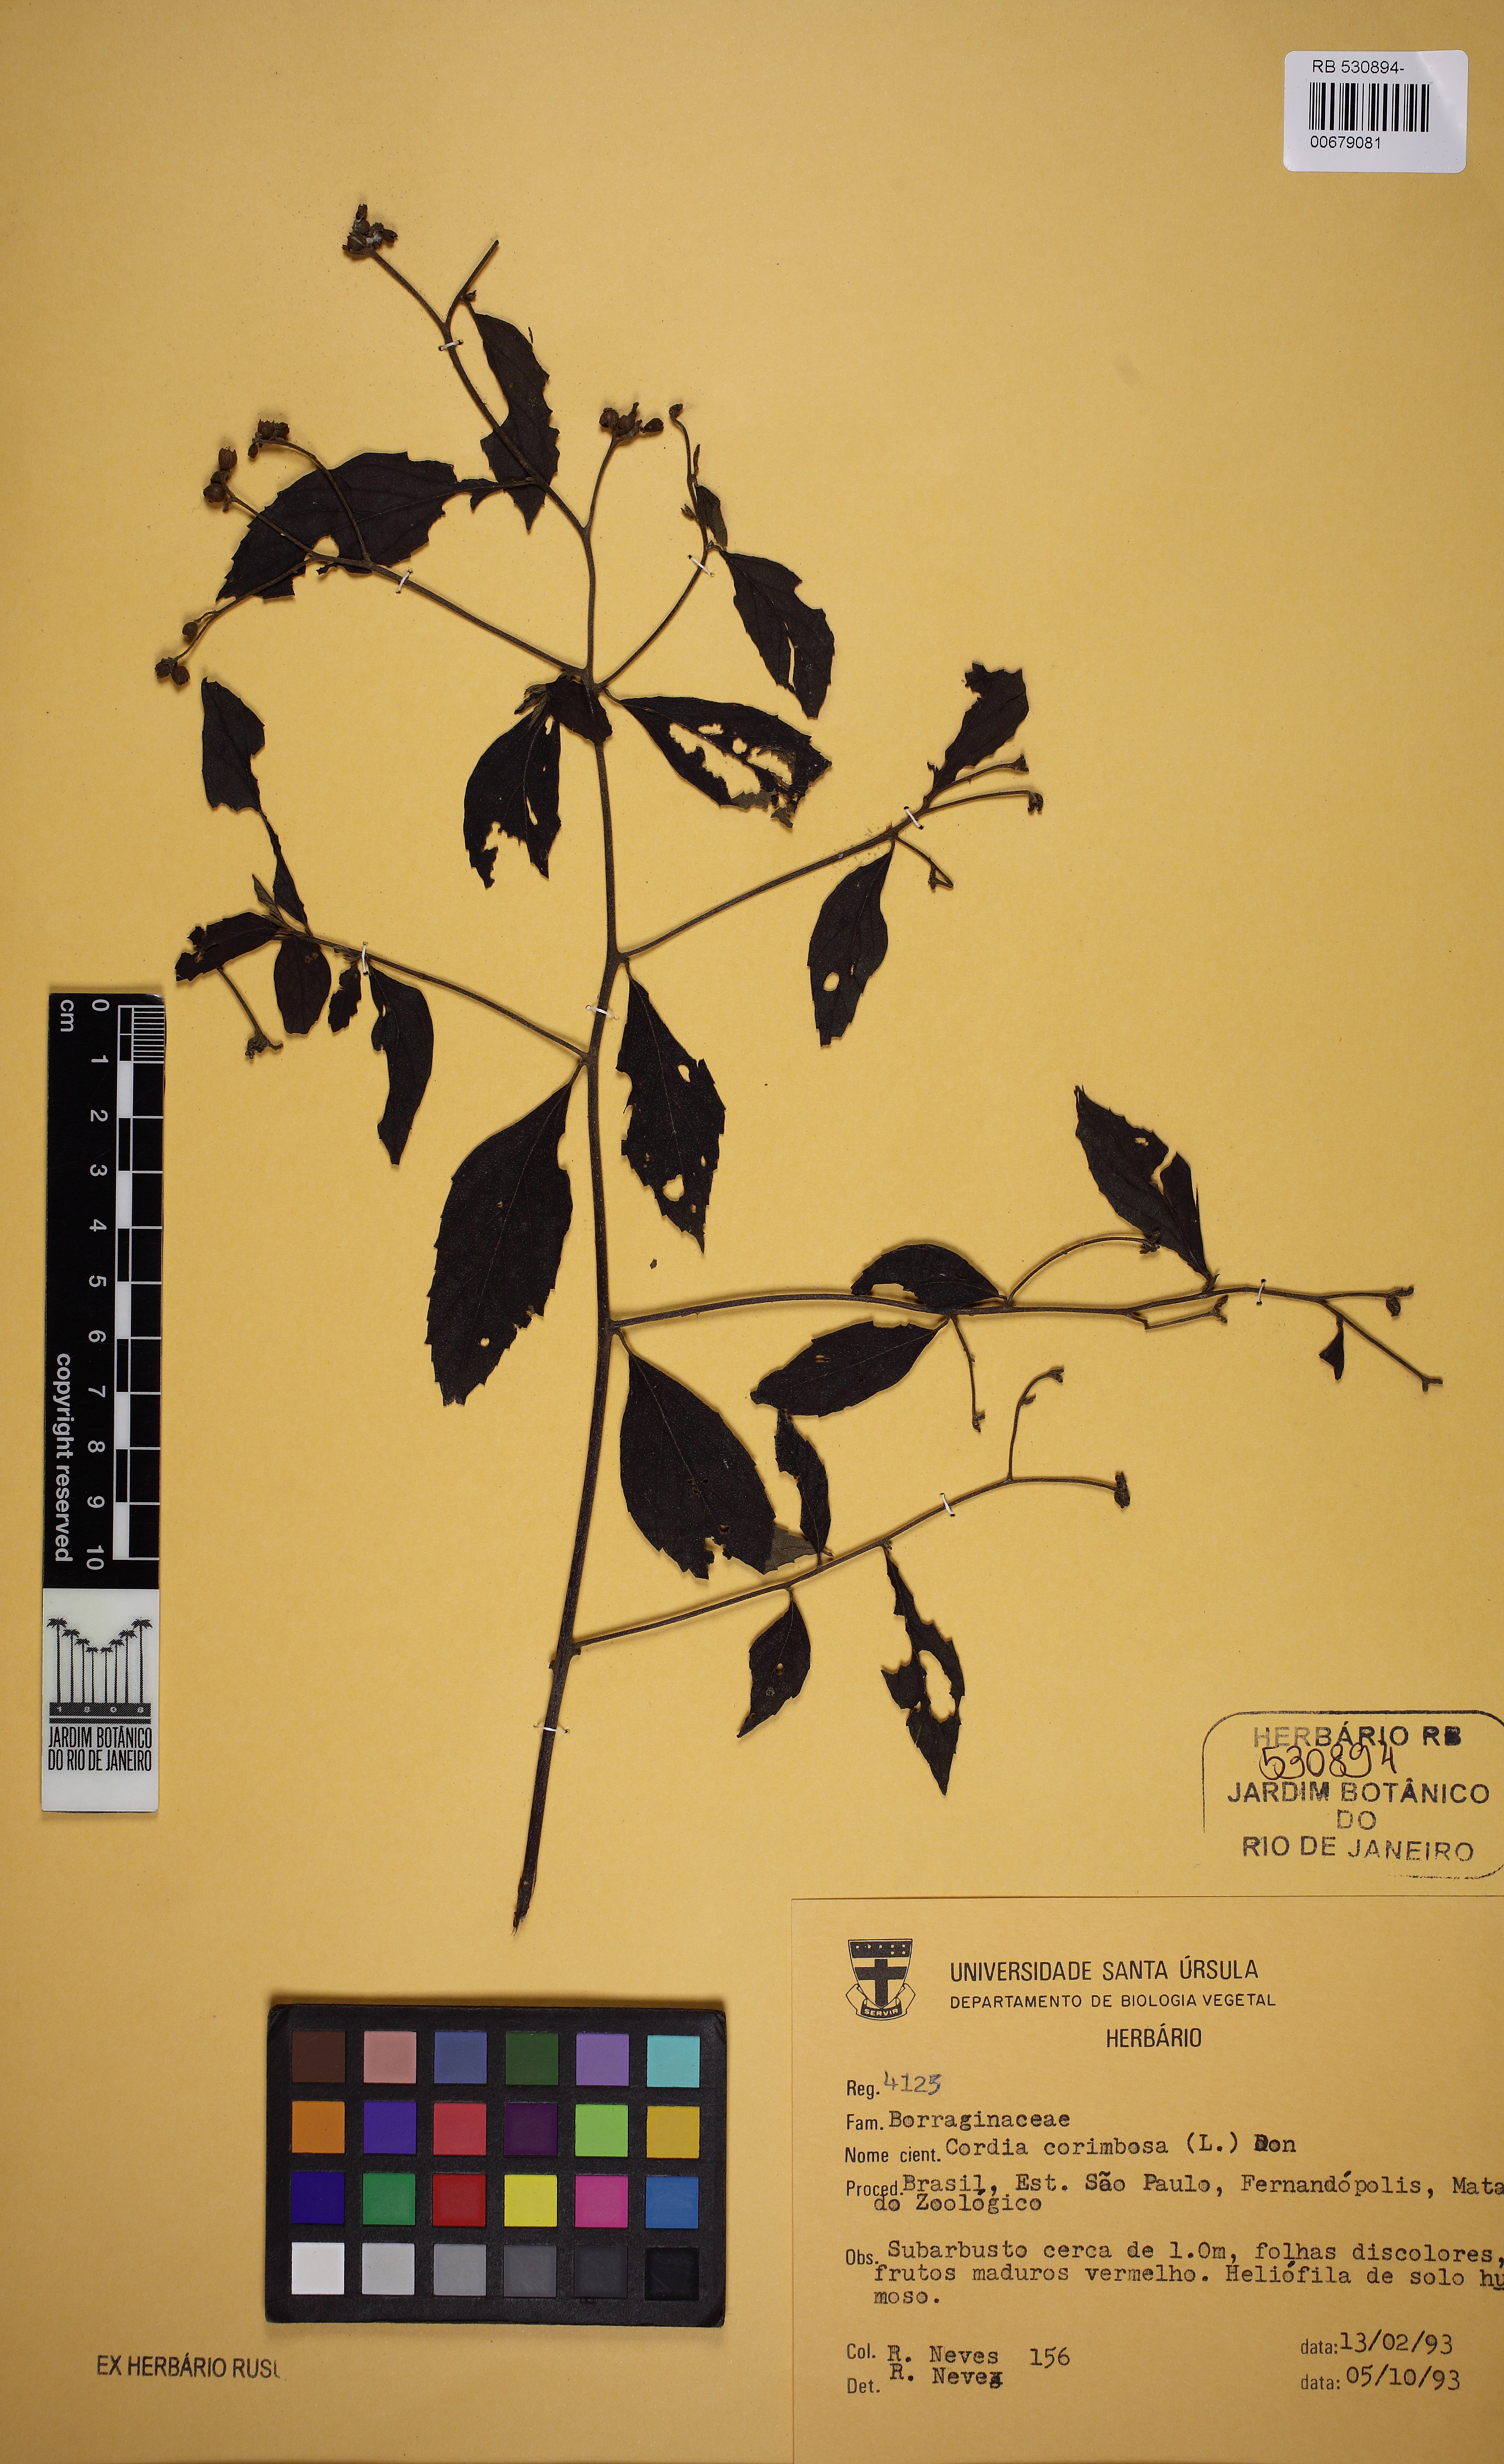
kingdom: Plantae
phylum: Tracheophyta
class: Magnoliopsida
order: Boraginales
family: Cordiaceae
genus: Varronia
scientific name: Varronia polycephala
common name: Black-sage
